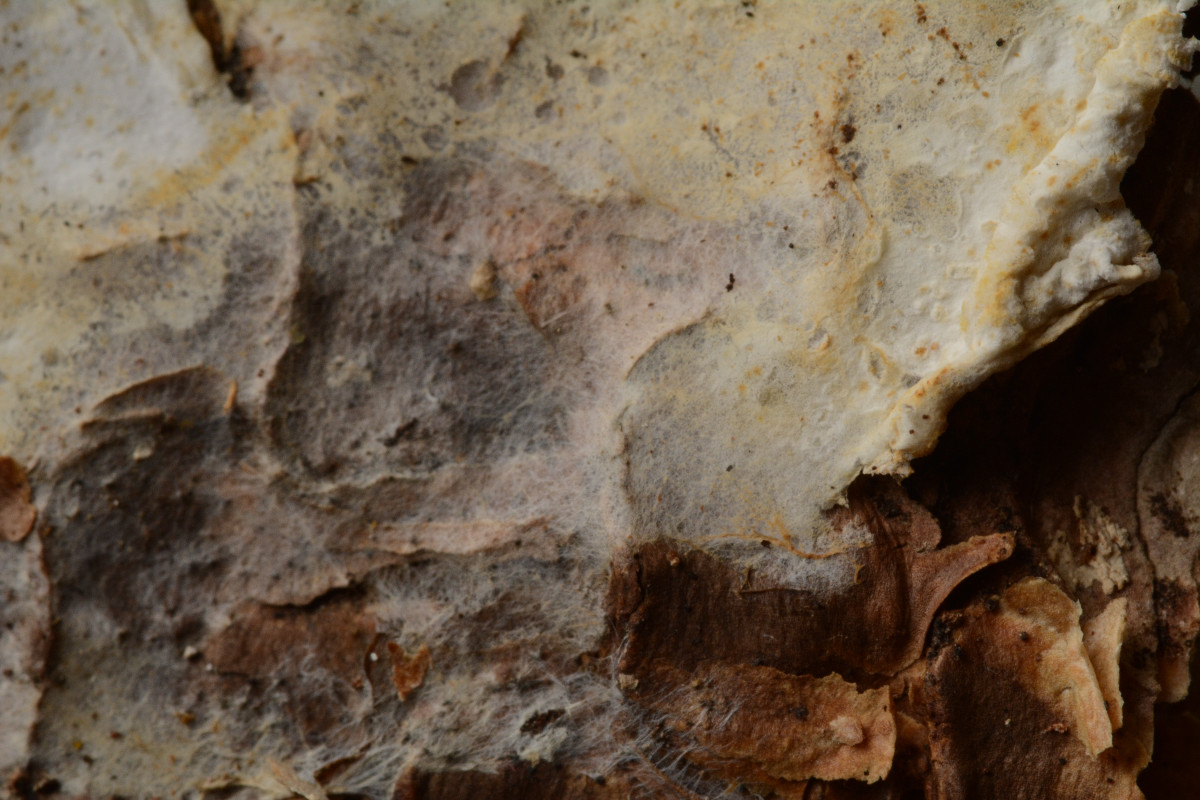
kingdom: Fungi
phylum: Basidiomycota
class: Agaricomycetes
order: Atheliales
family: Atheliaceae
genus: Piloderma
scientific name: Piloderma bicolor
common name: gul førnehinde
